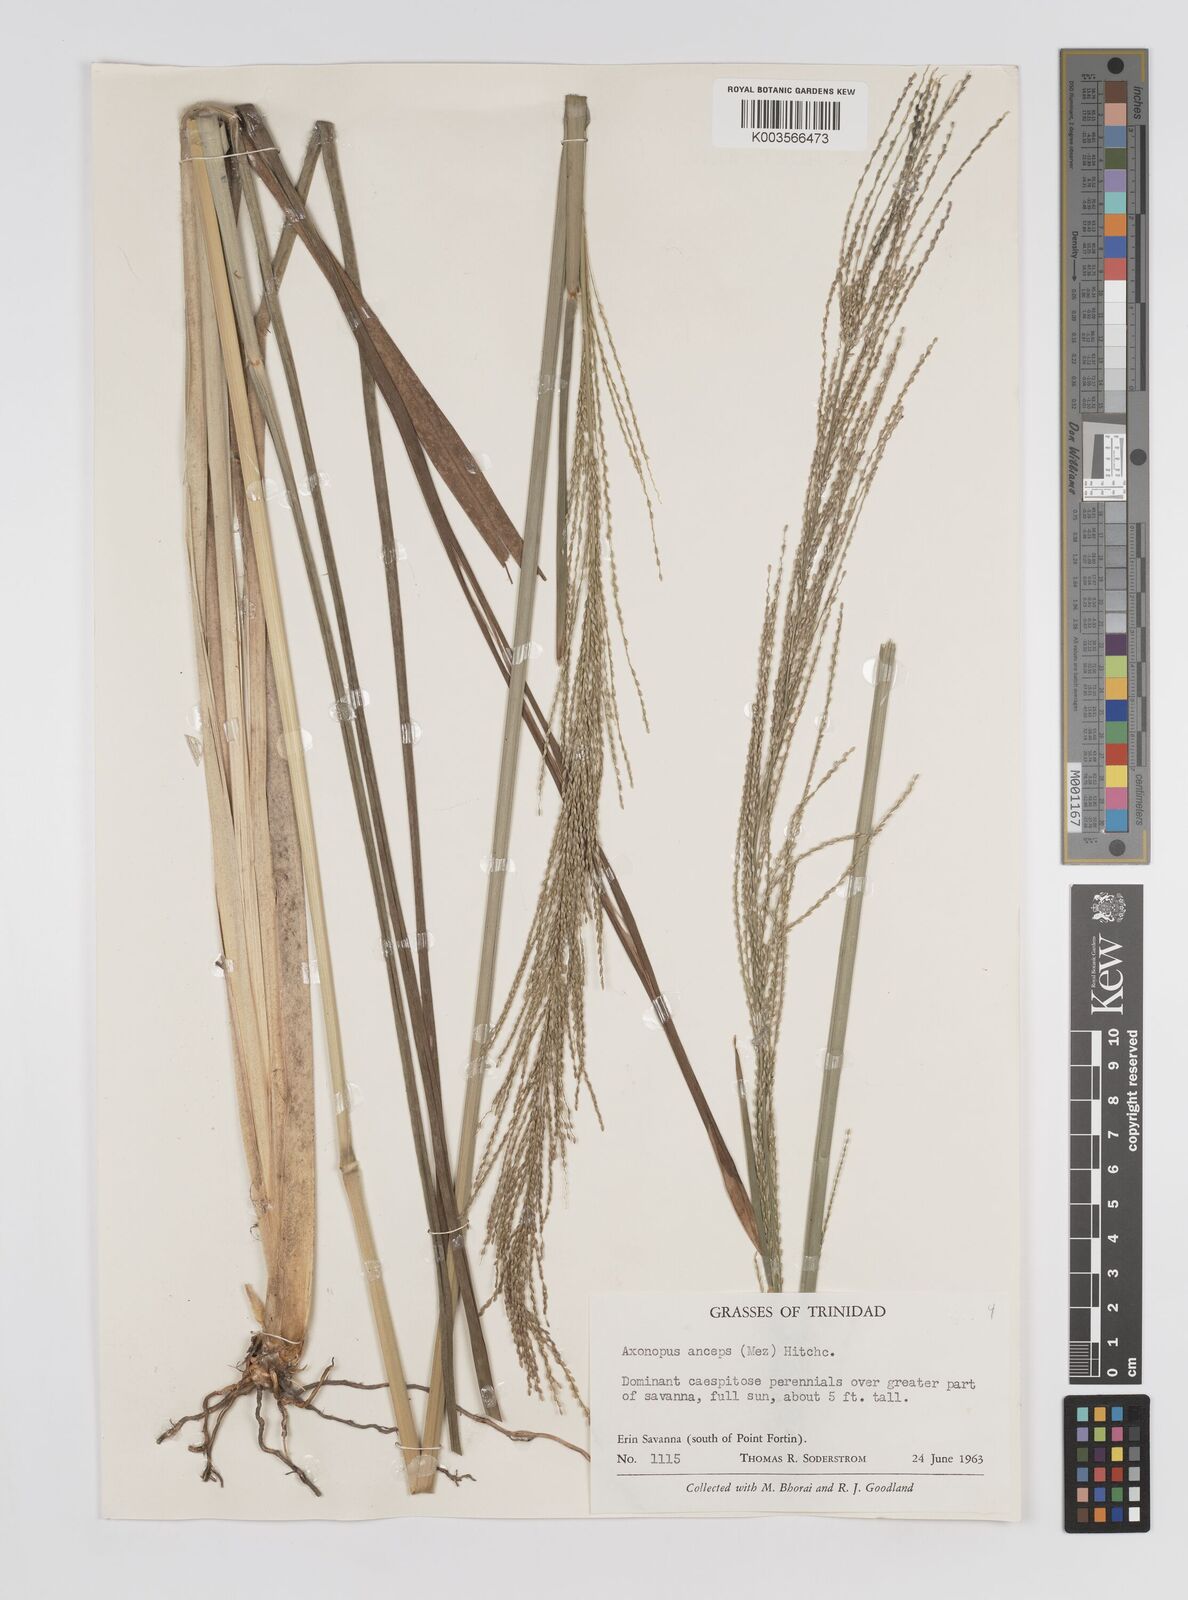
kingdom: Plantae
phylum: Tracheophyta
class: Liliopsida
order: Poales
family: Poaceae
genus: Axonopus
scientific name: Axonopus anceps
